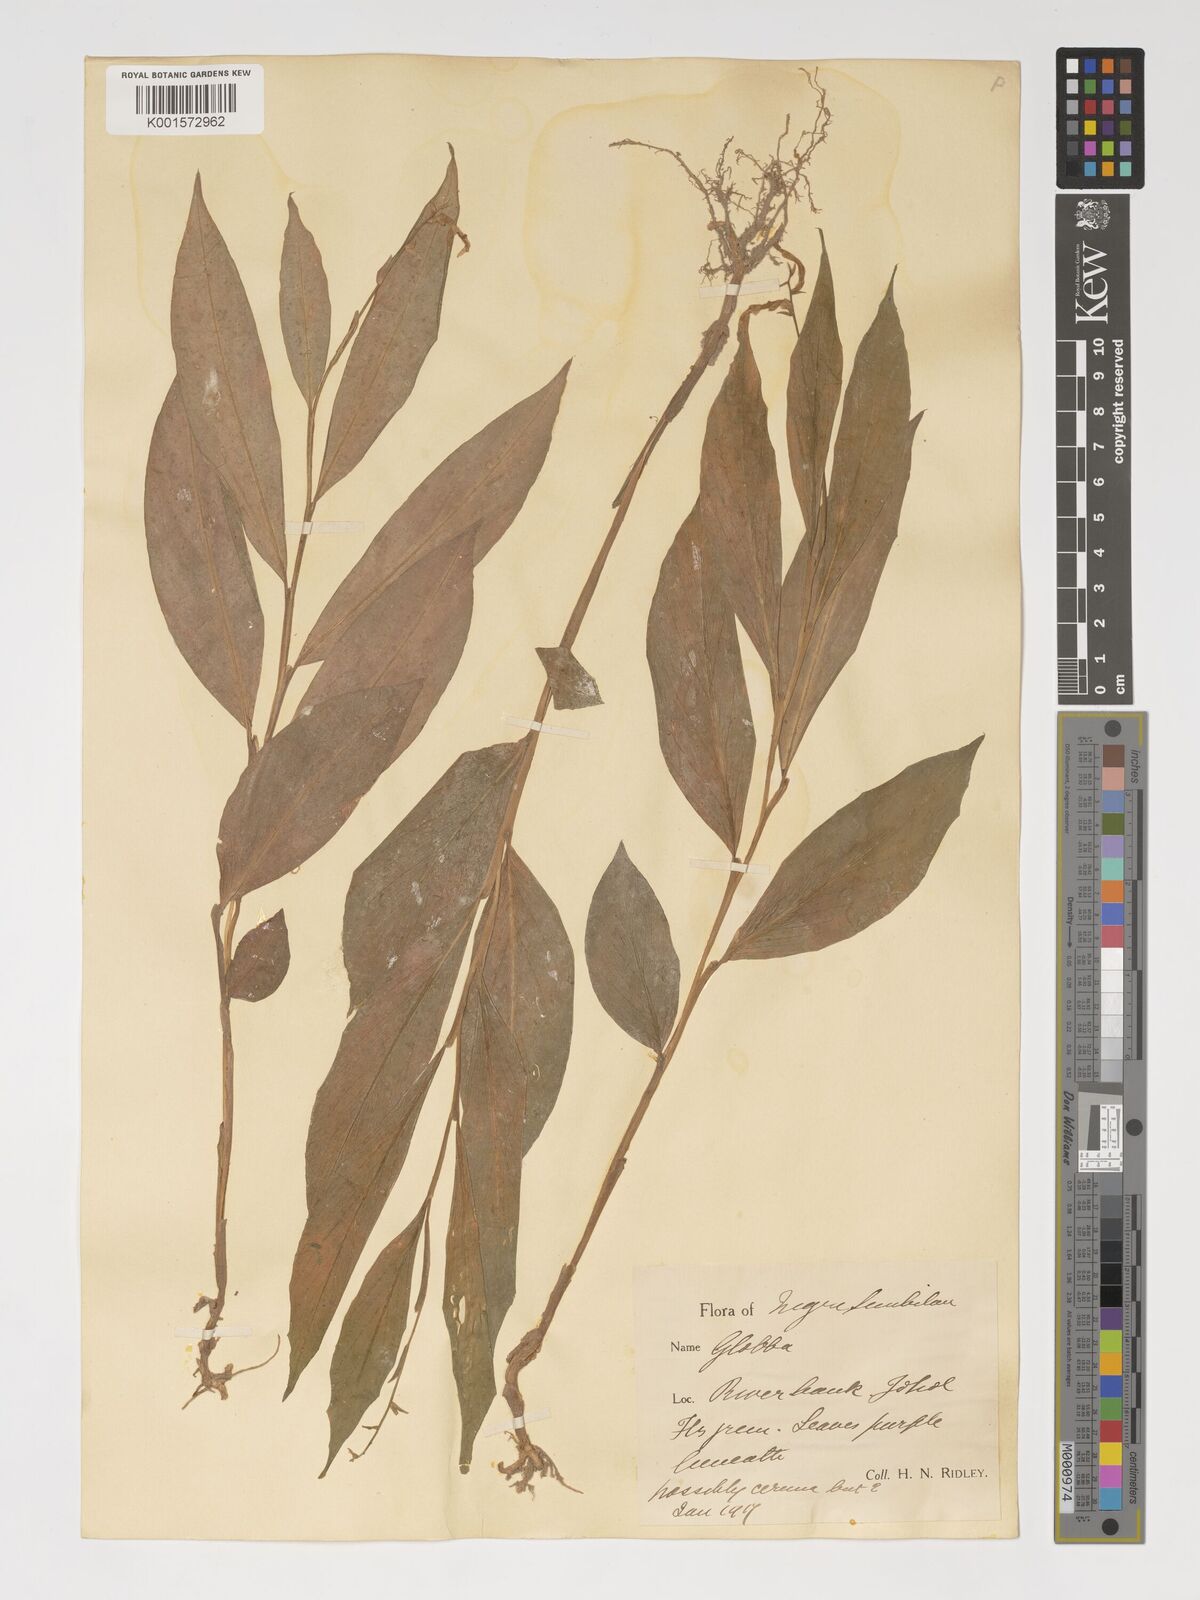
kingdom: Plantae
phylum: Tracheophyta
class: Liliopsida
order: Zingiberales
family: Zingiberaceae
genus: Globba
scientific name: Globba cernua
